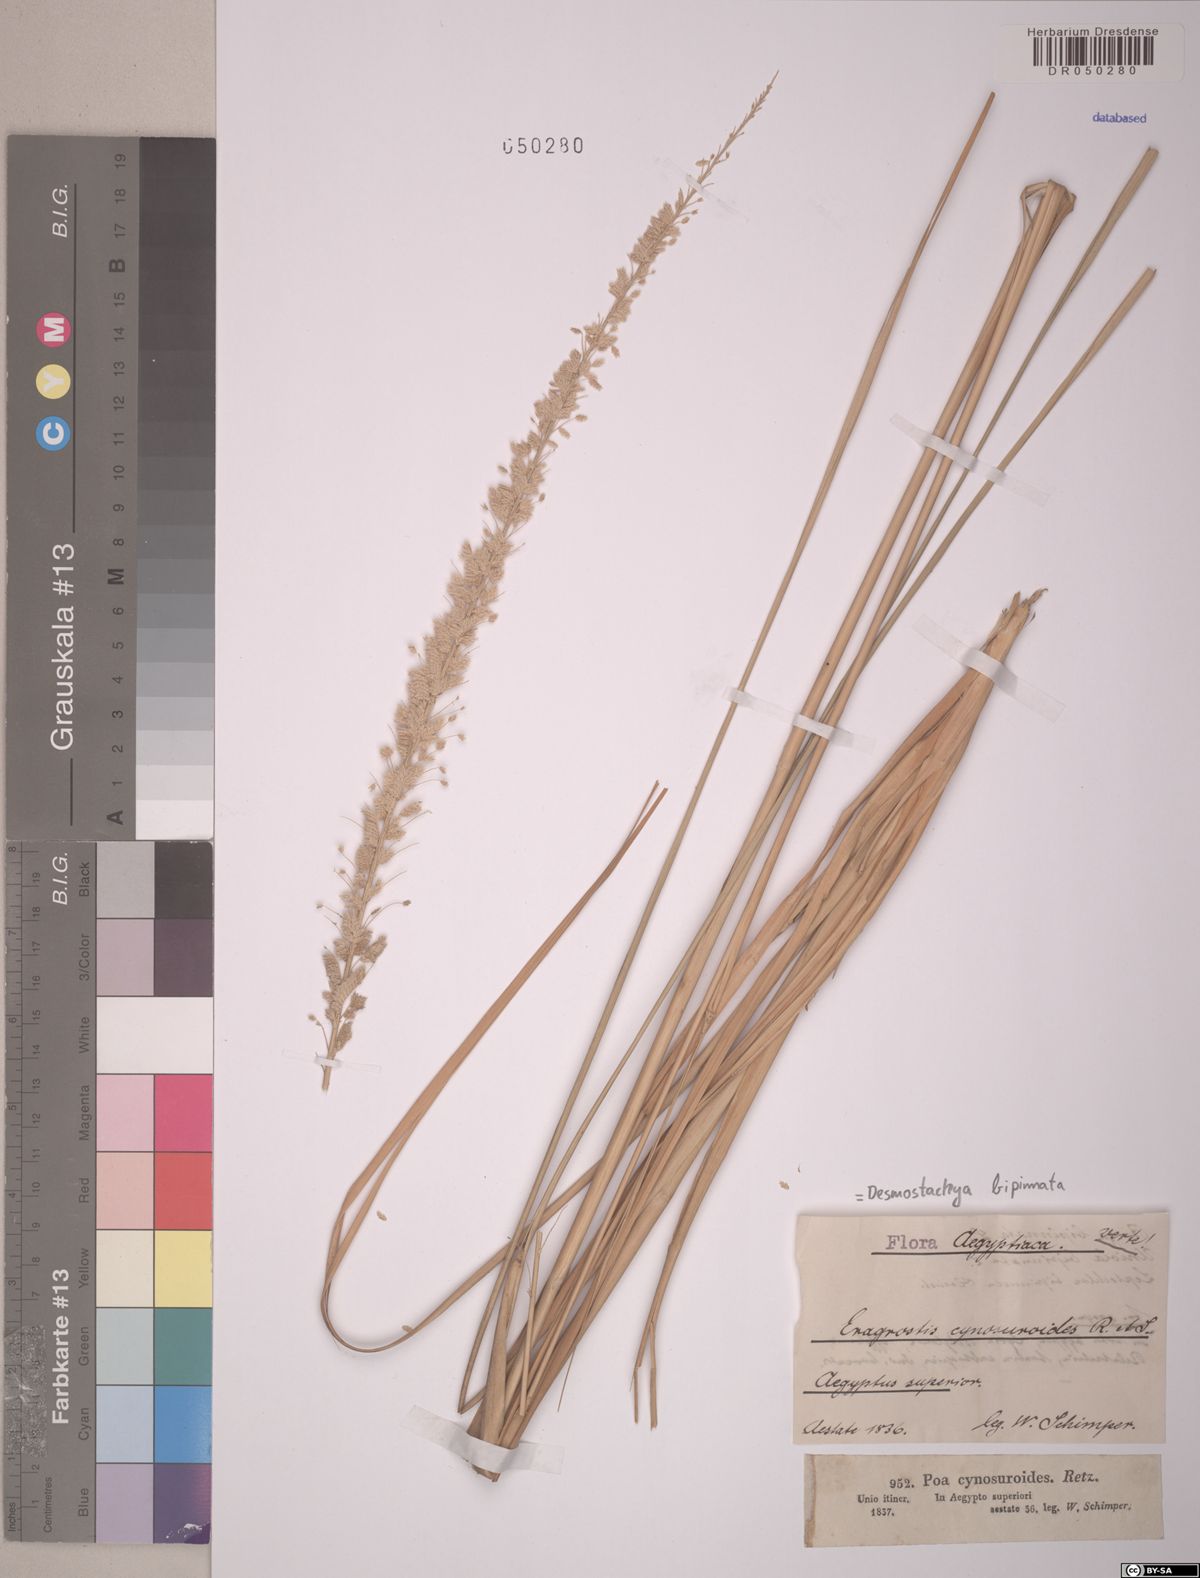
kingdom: Plantae
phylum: Tracheophyta
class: Liliopsida
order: Poales
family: Poaceae
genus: Desmostachya
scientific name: Desmostachya bipinnata
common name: Crowfoot grass
